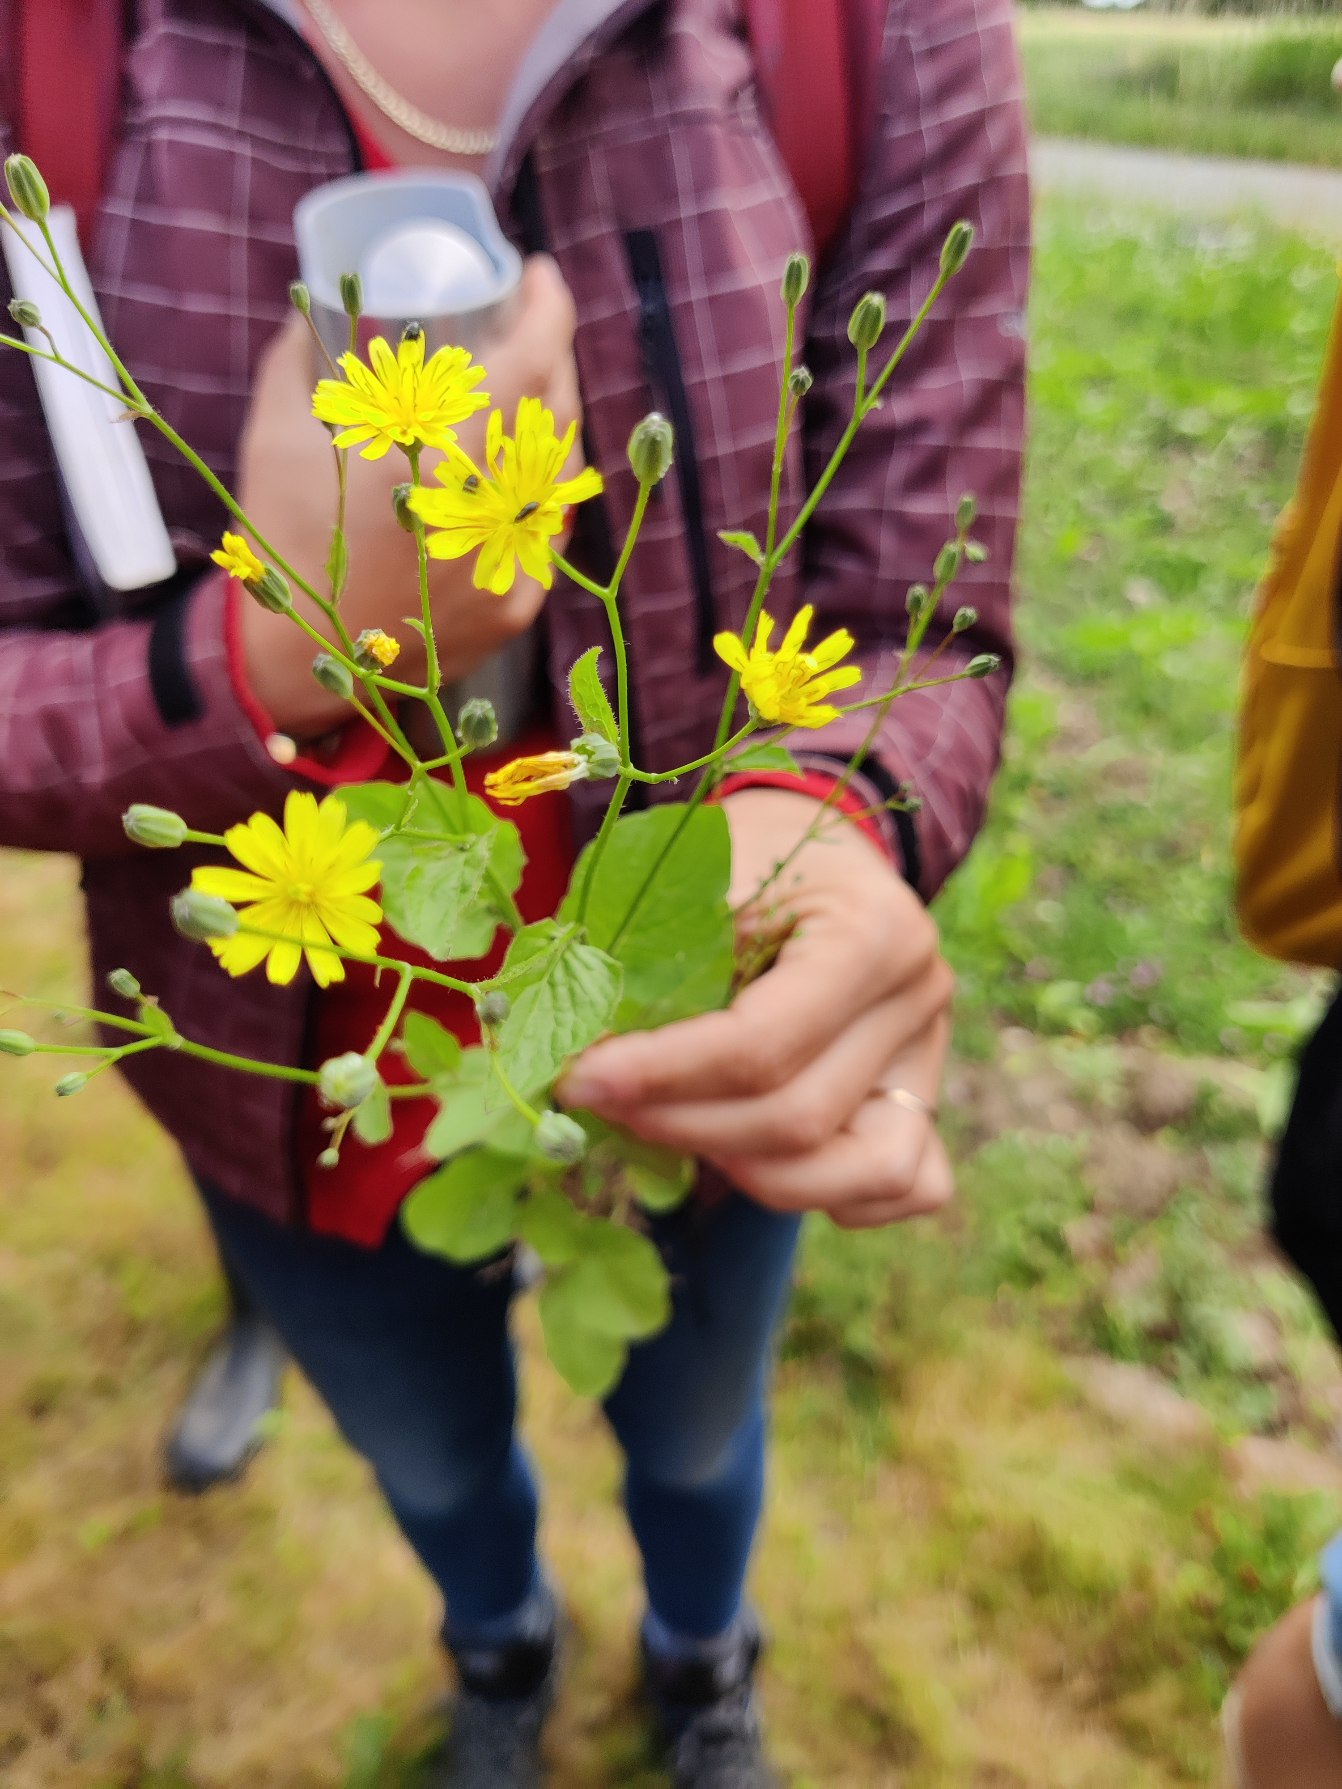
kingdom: Plantae
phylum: Tracheophyta
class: Magnoliopsida
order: Asterales
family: Asteraceae
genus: Lapsana
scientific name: Lapsana communis
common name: Haremad
